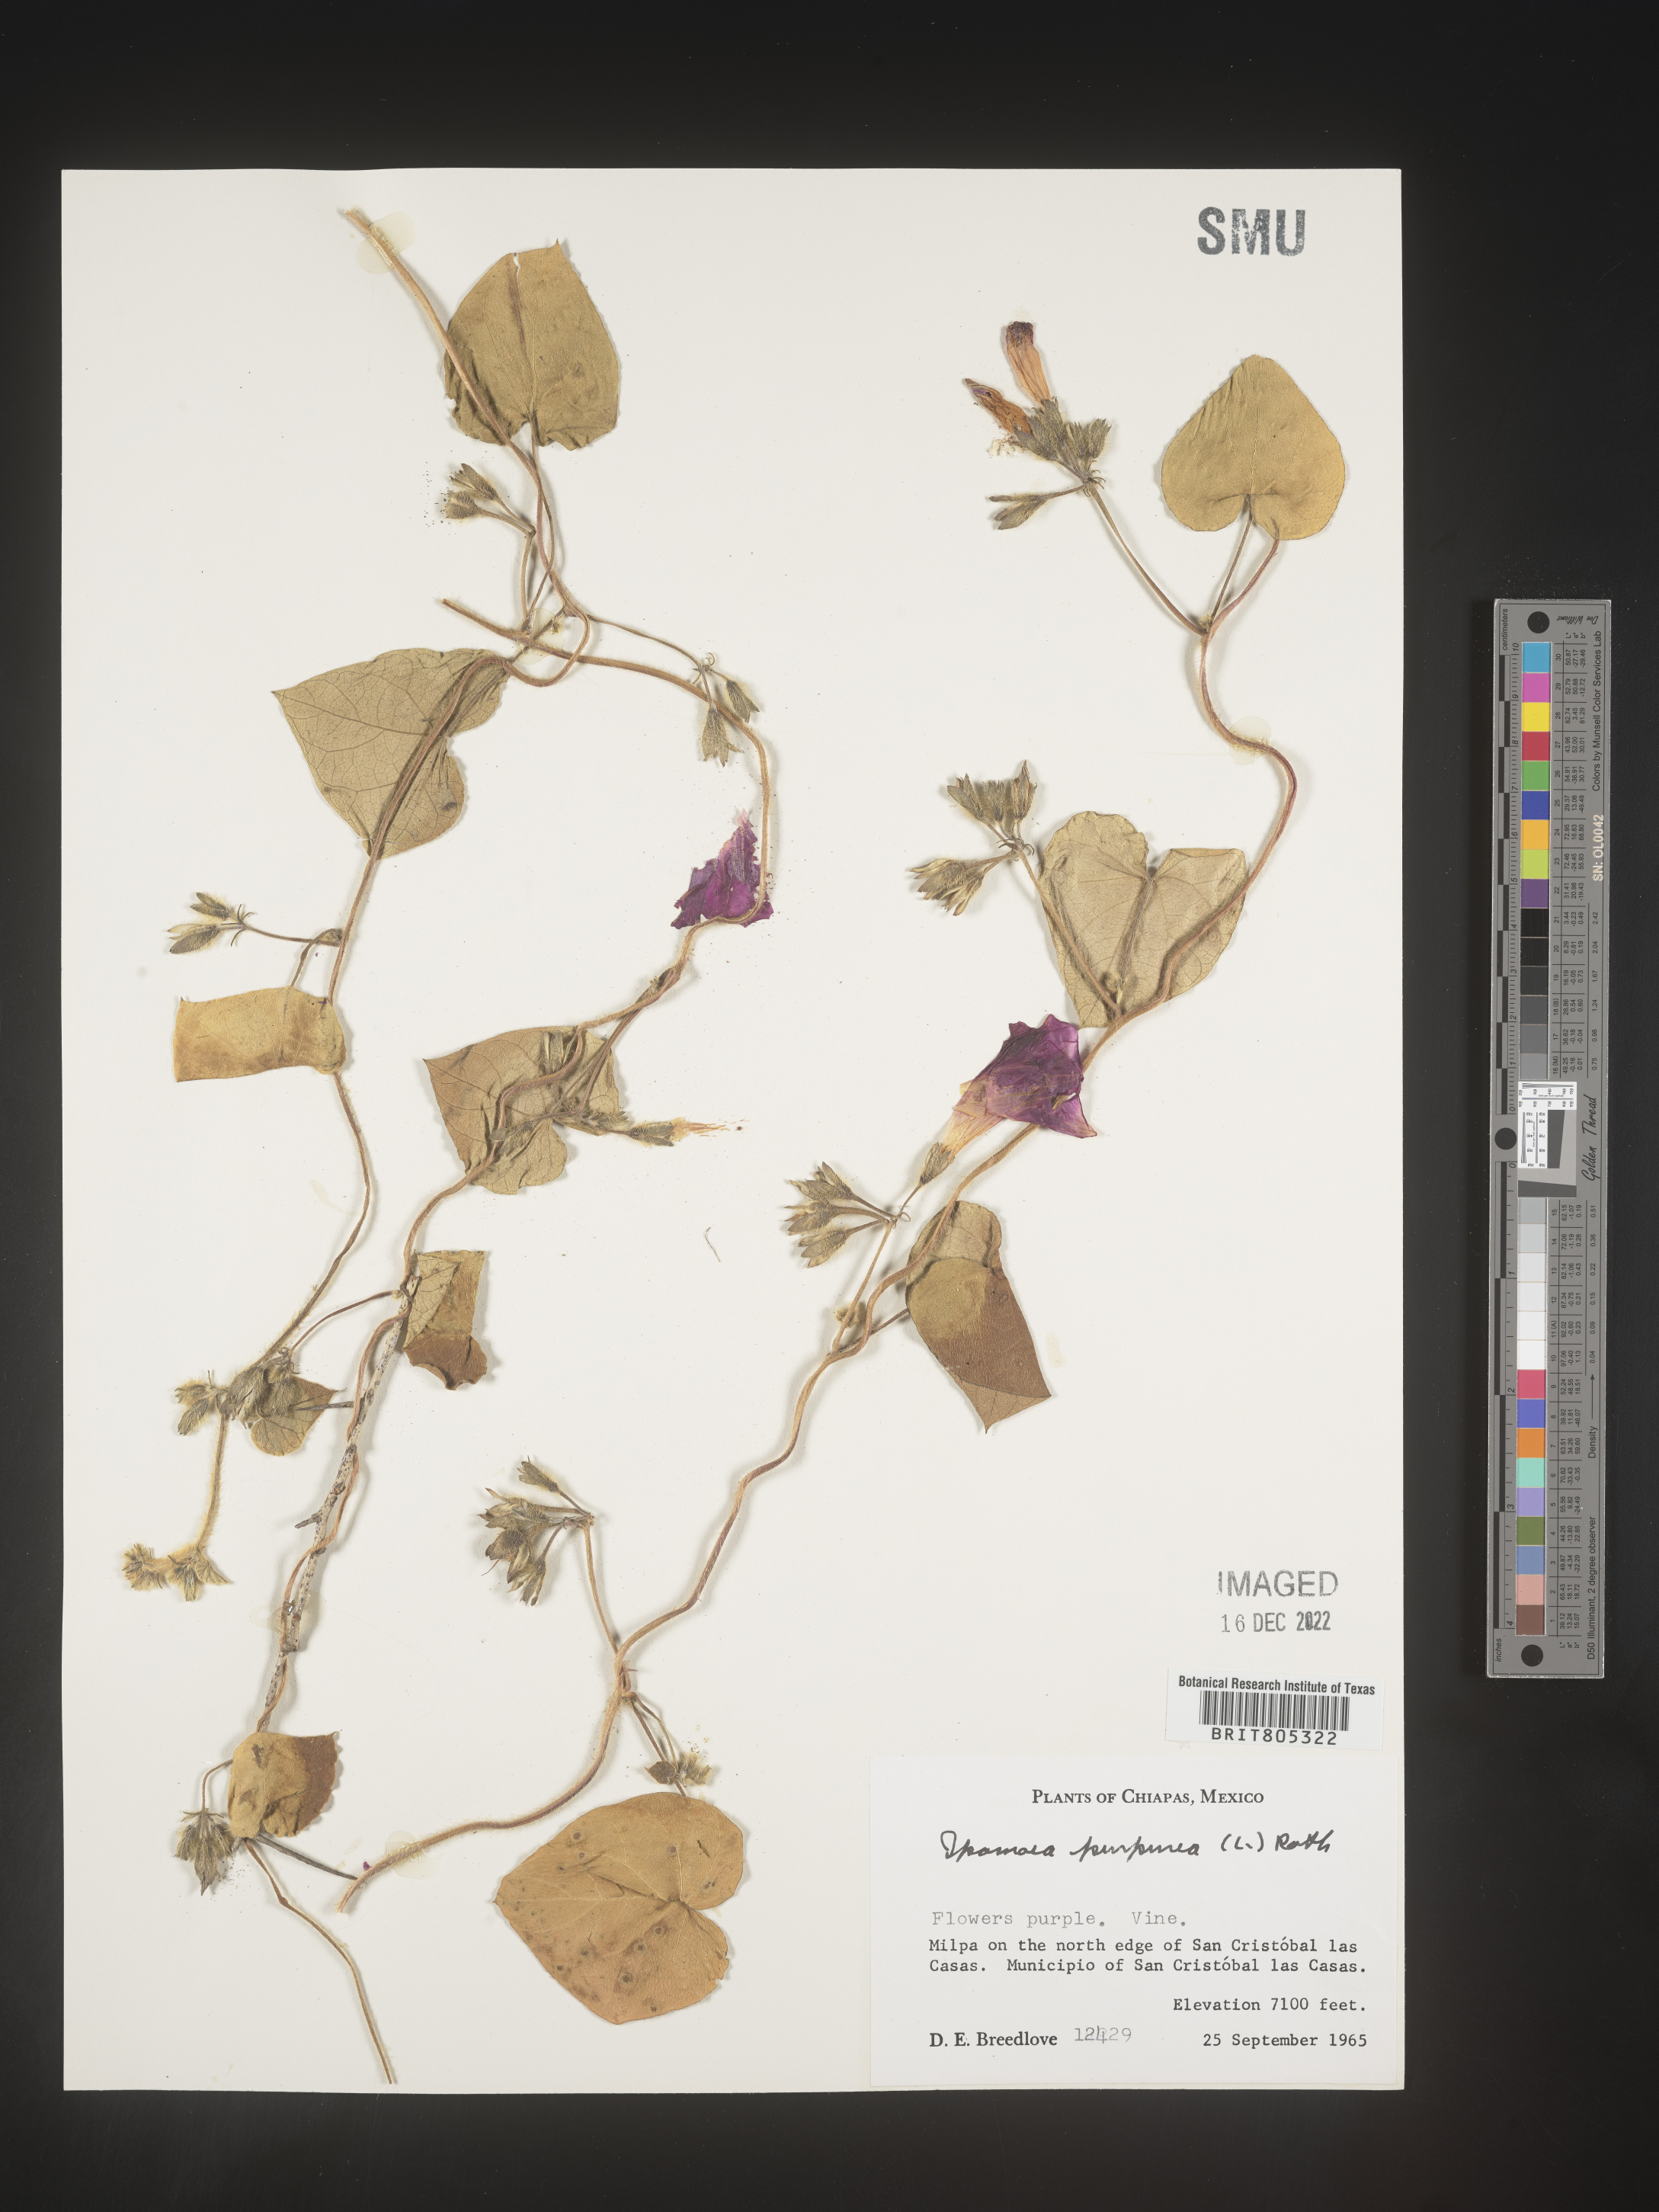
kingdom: Plantae
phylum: Tracheophyta
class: Magnoliopsida
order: Solanales
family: Convolvulaceae
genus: Ipomoea
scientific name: Ipomoea
